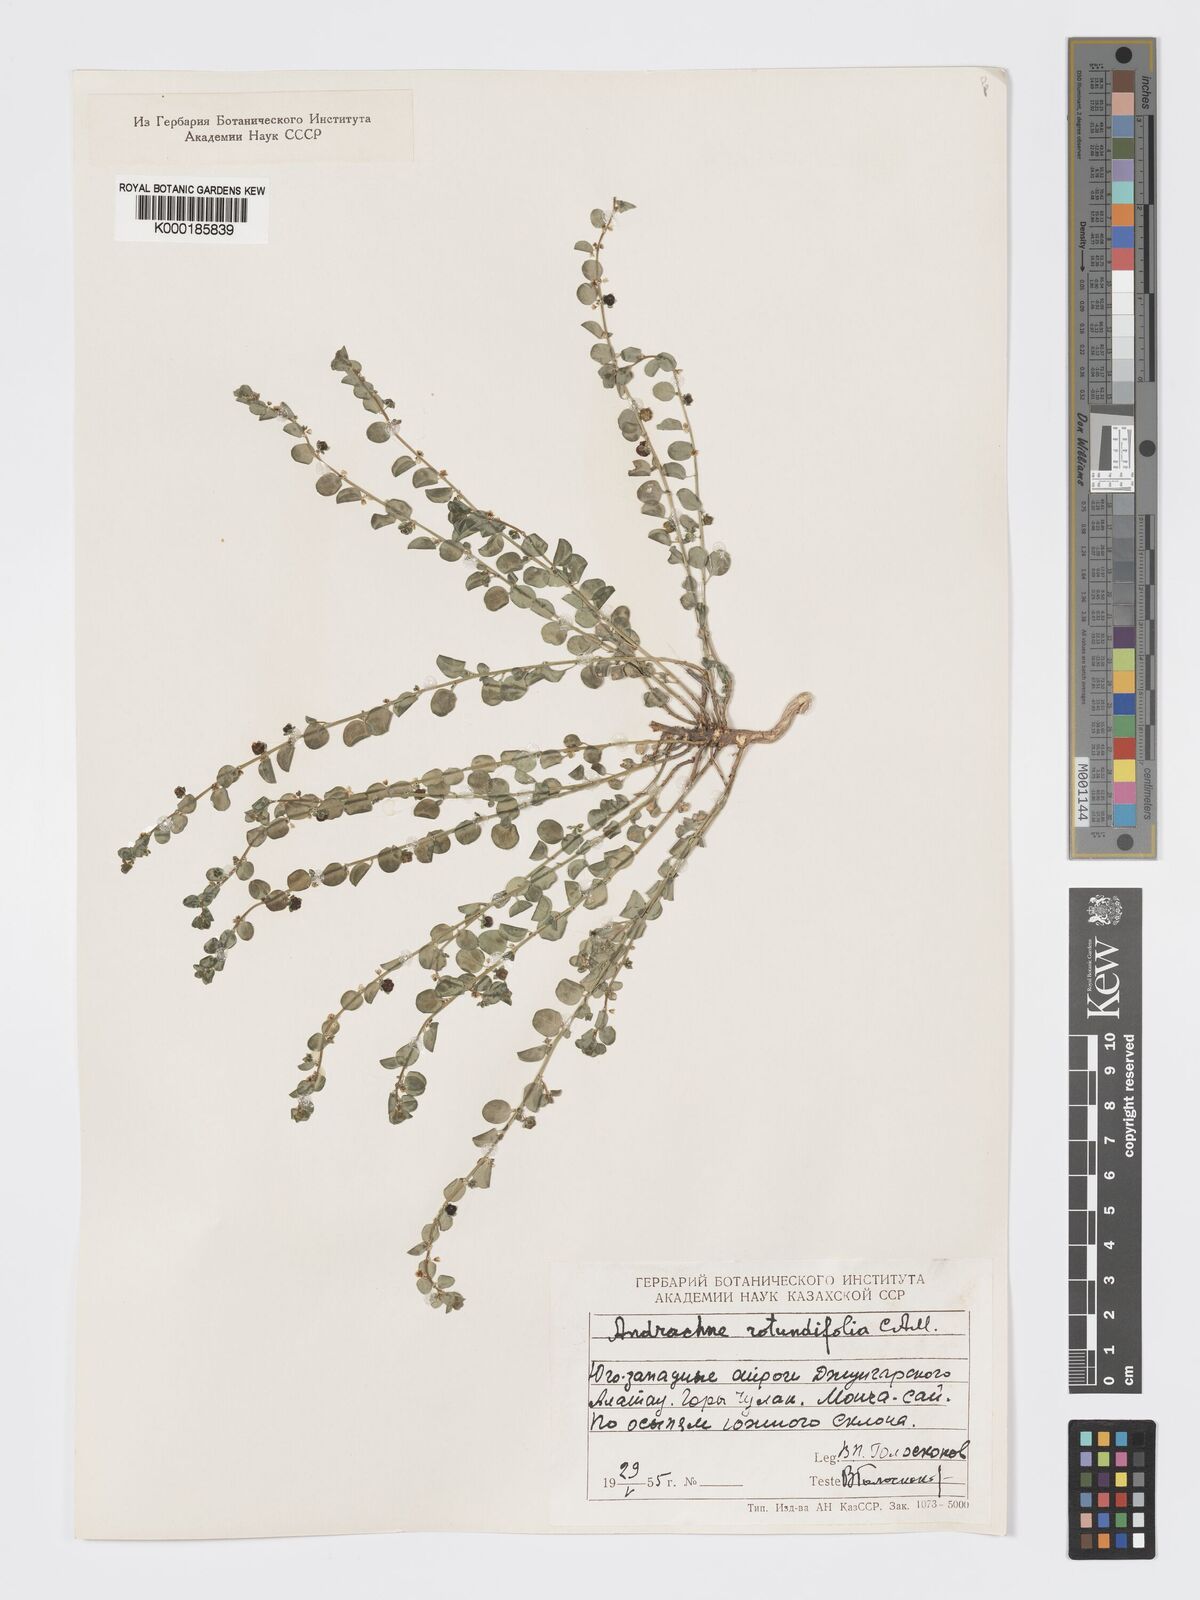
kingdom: Plantae
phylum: Tracheophyta
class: Magnoliopsida
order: Malpighiales
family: Phyllanthaceae
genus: Andrachne
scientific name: Andrachne telephioides
